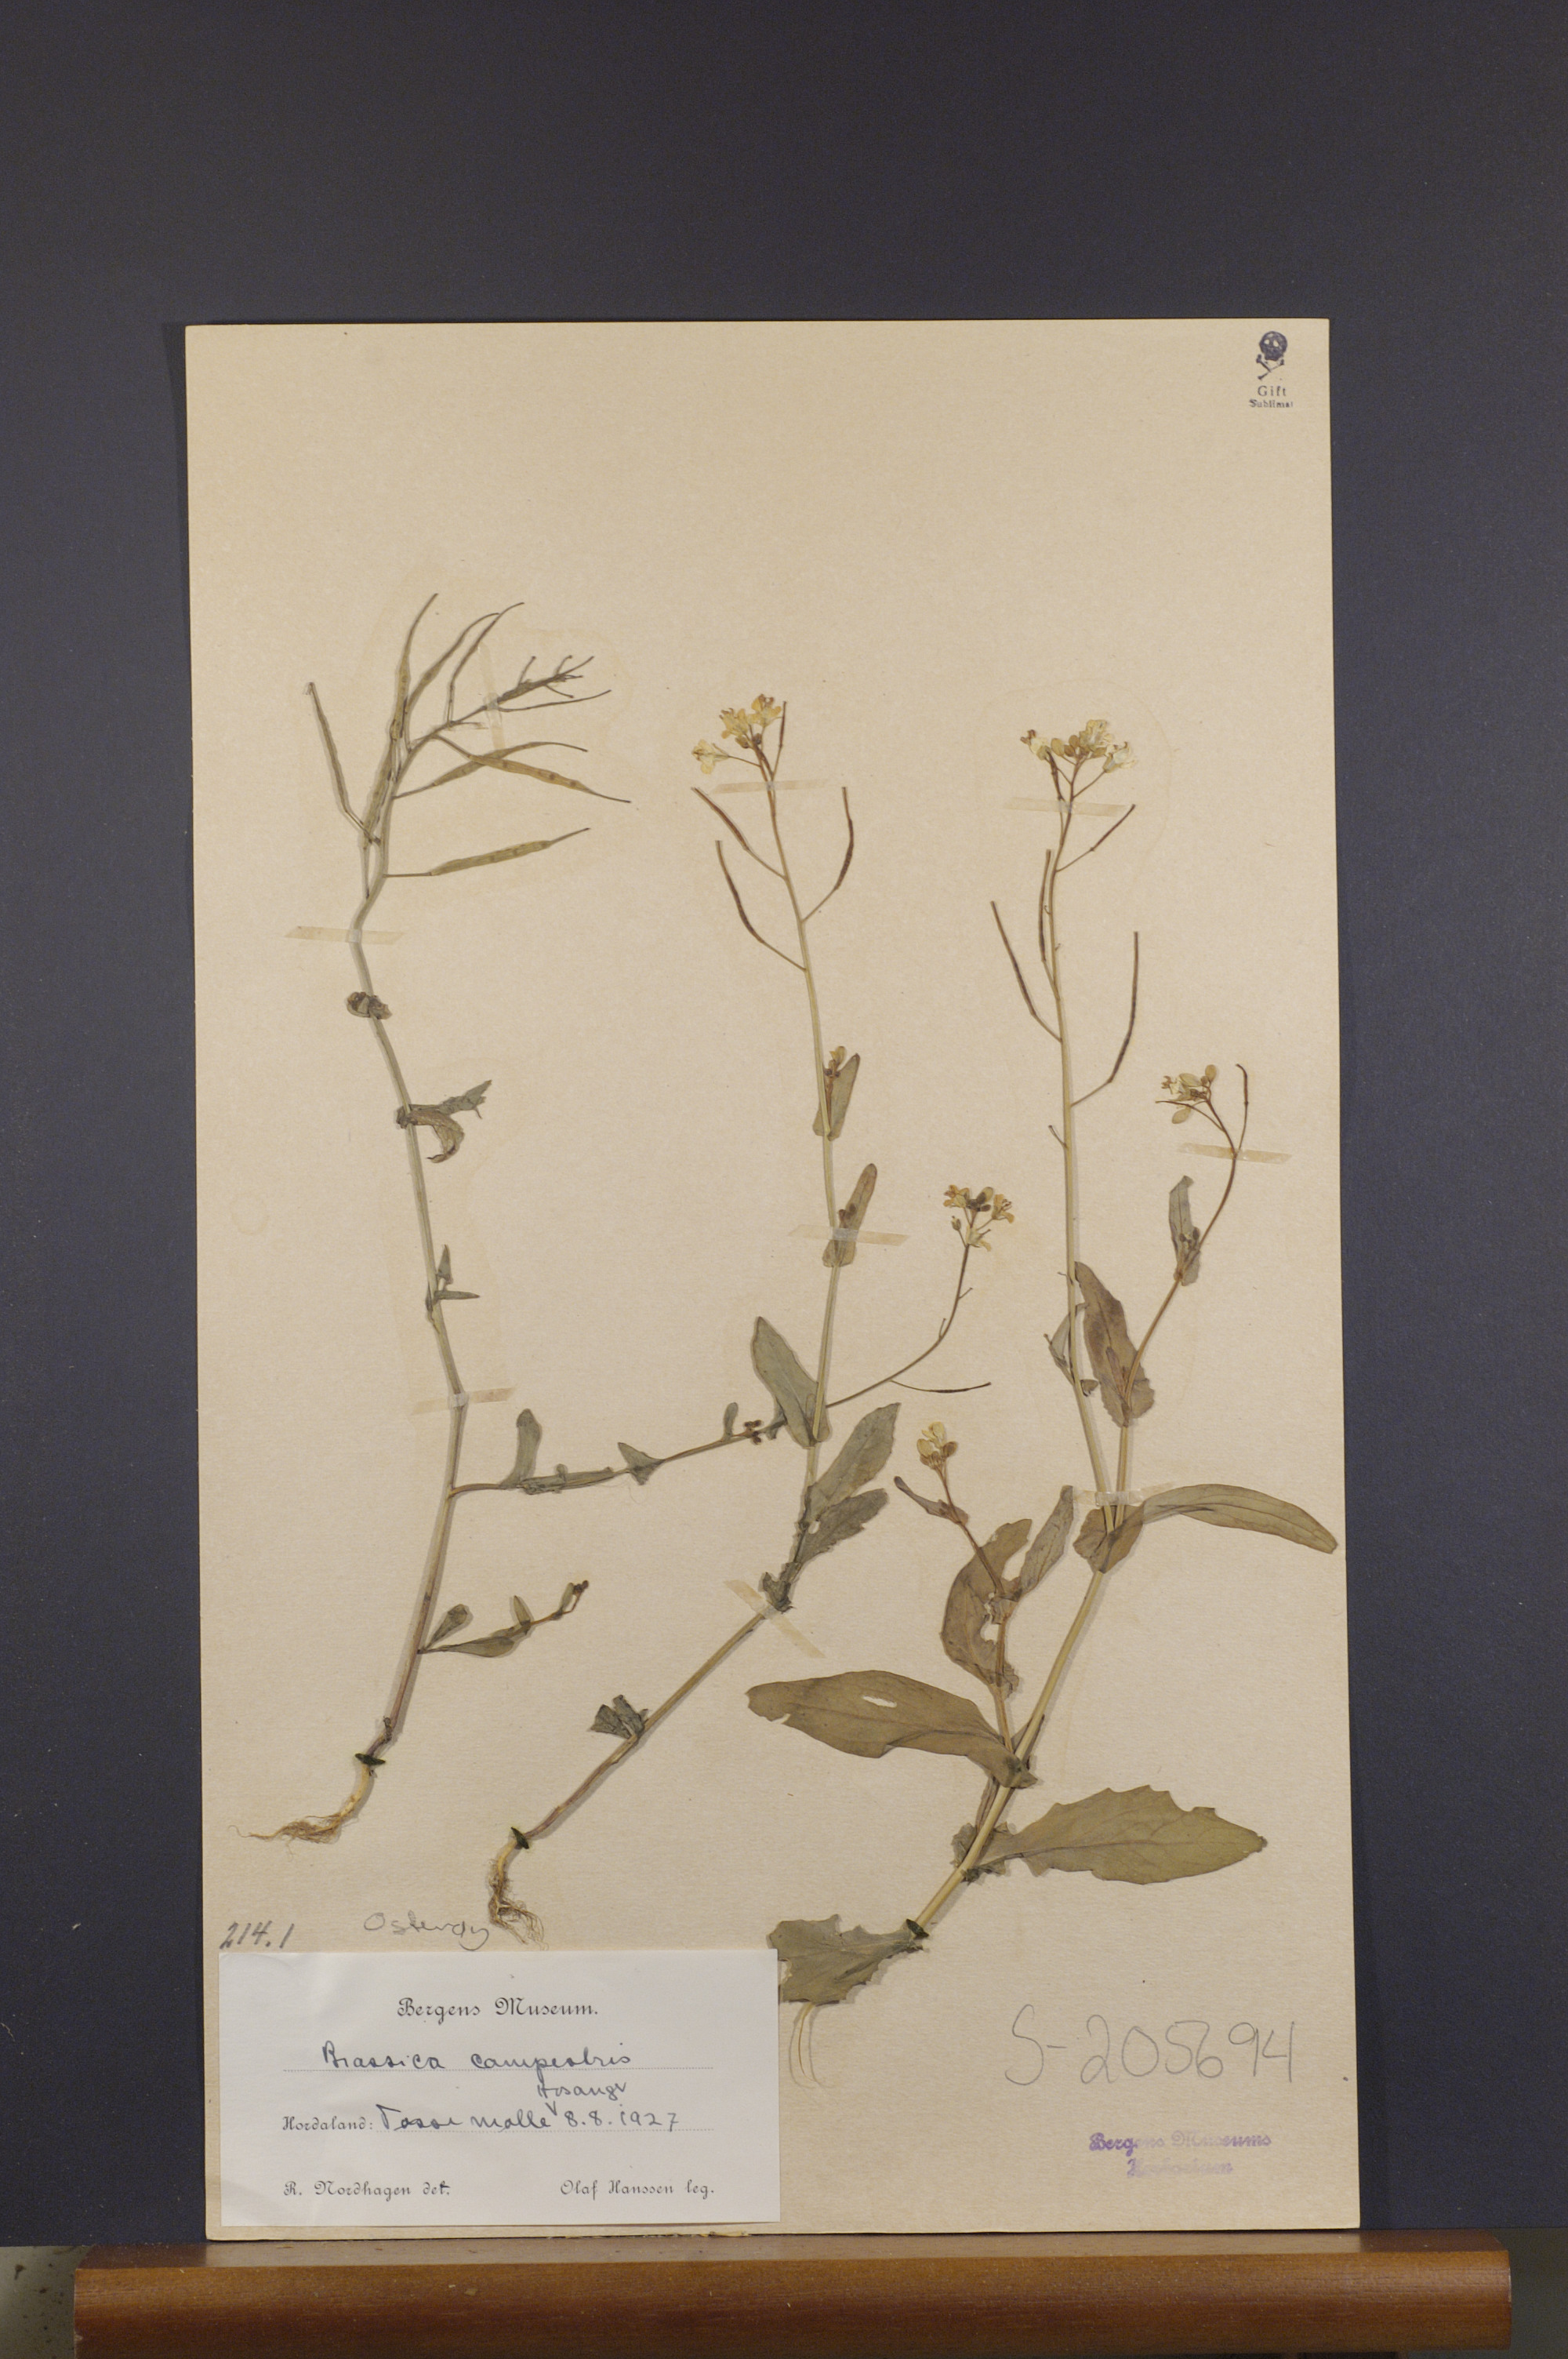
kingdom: Plantae
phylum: Tracheophyta
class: Magnoliopsida
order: Brassicales
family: Brassicaceae
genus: Brassica
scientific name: Brassica rapa
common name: Field mustard
